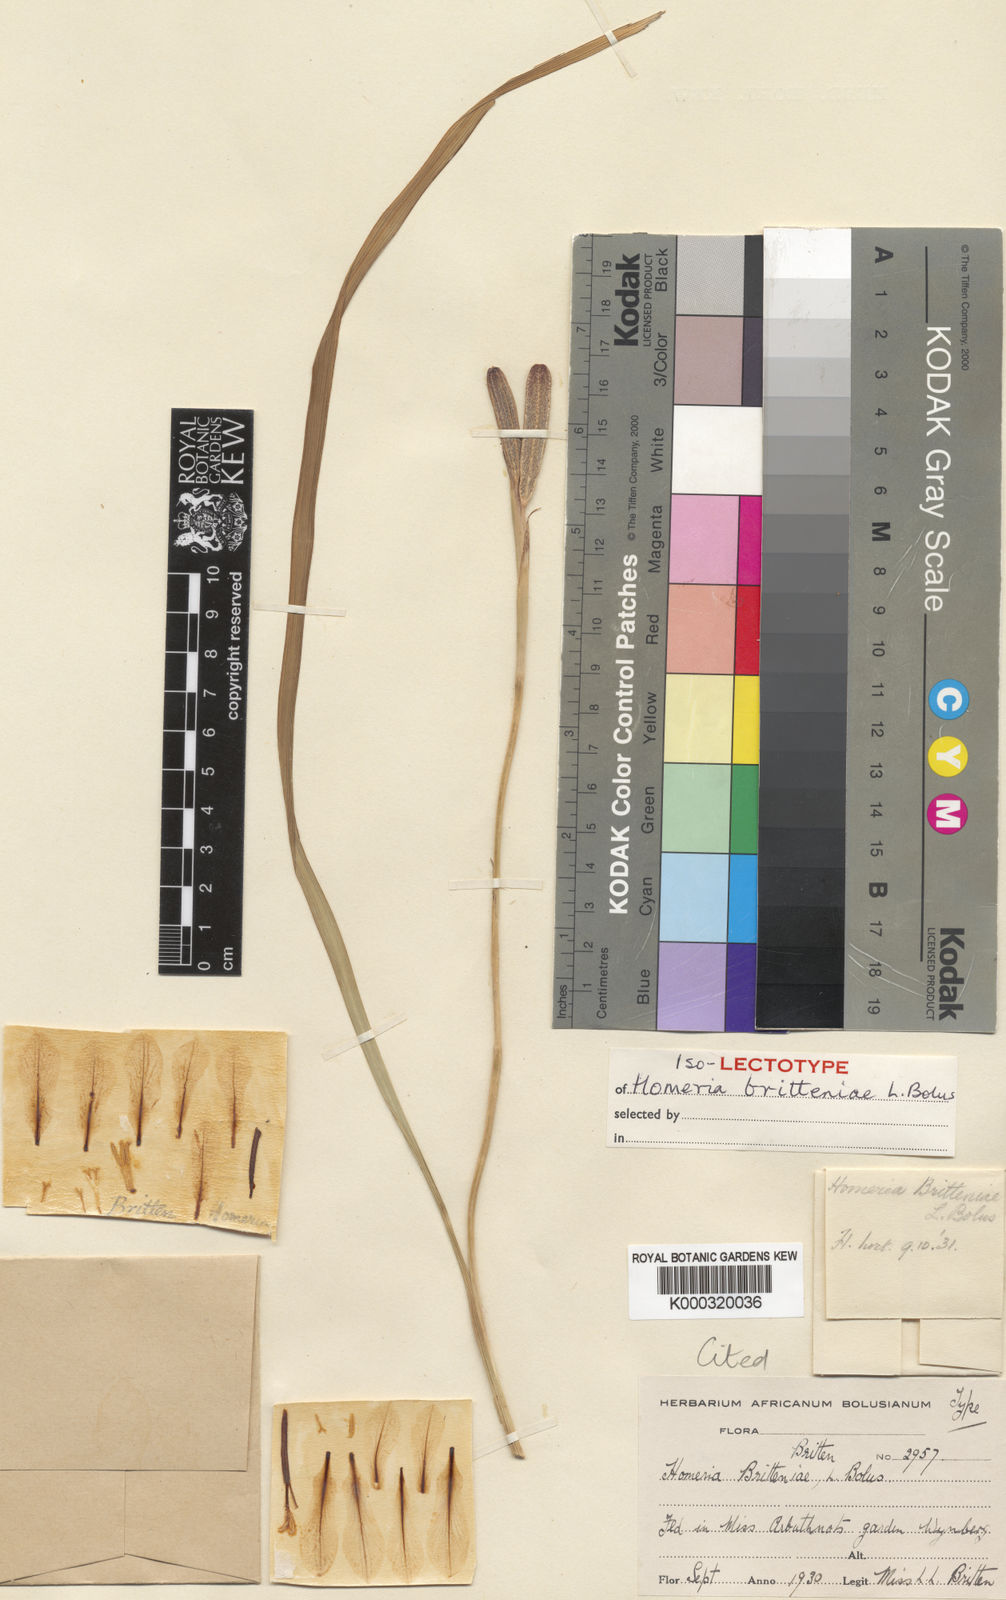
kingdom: Plantae
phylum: Tracheophyta
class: Liliopsida
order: Asparagales
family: Iridaceae
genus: Moraea
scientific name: Moraea britteniae
